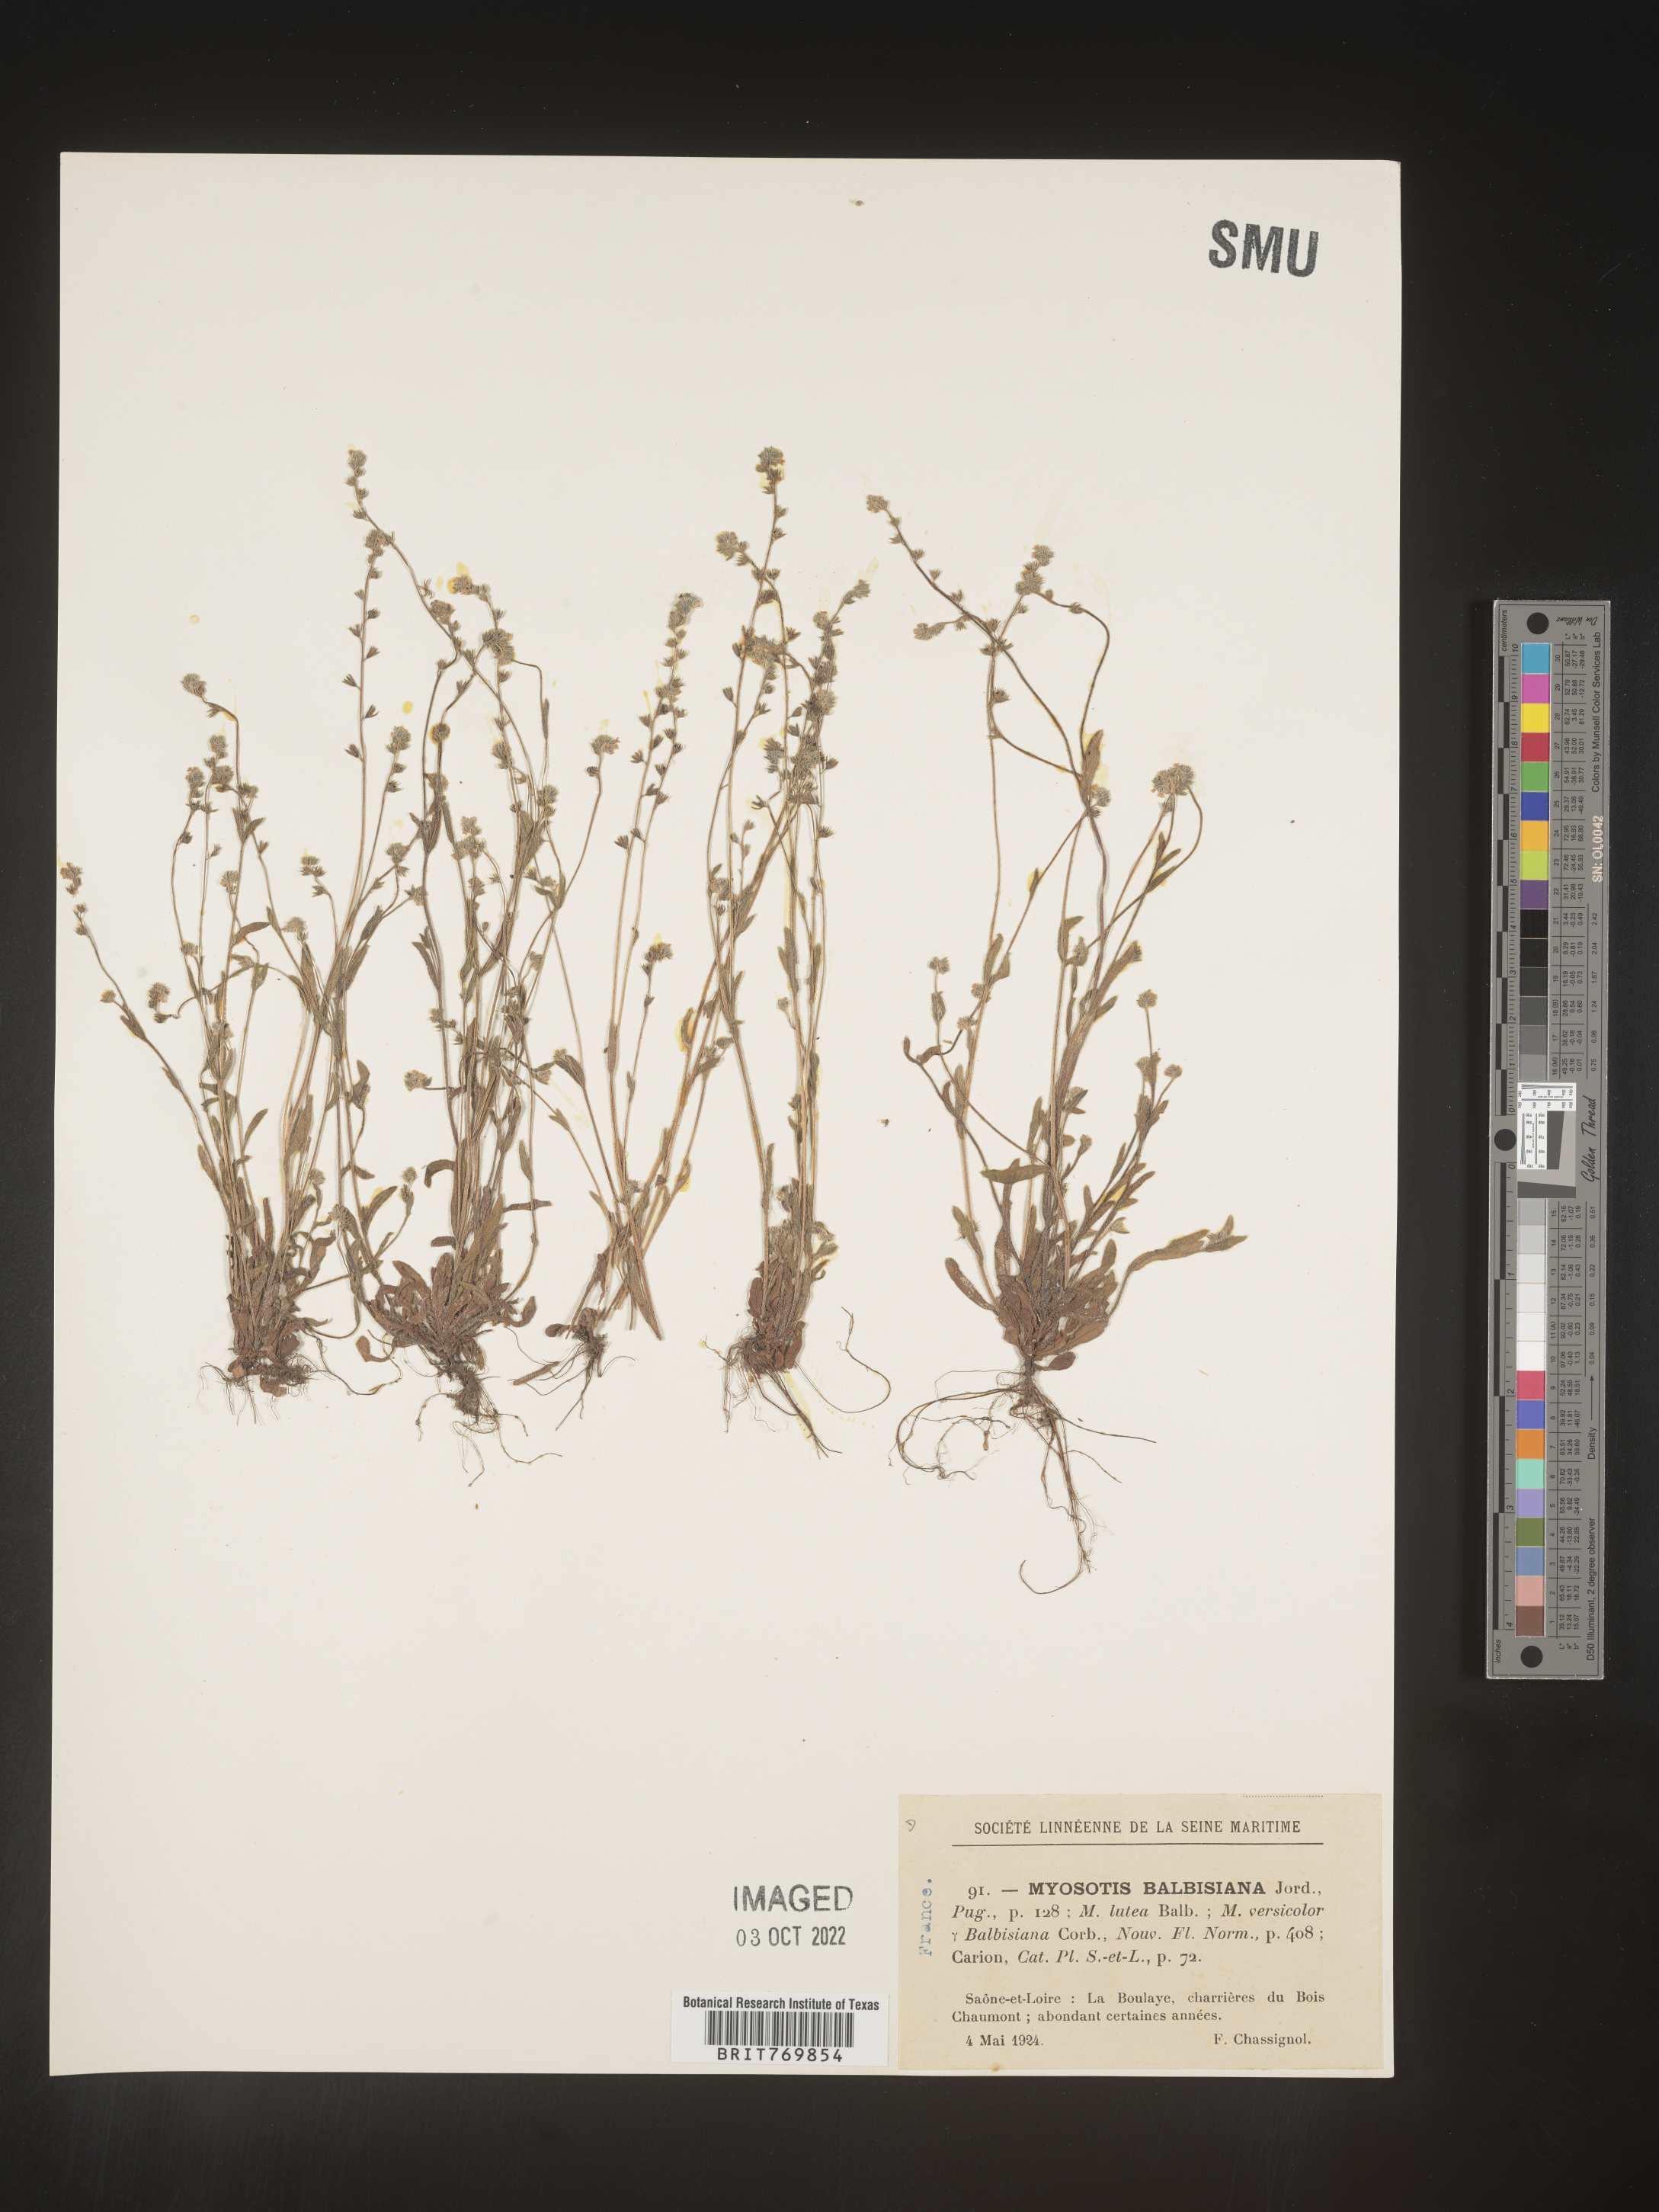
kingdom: Plantae
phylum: Tracheophyta
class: Magnoliopsida
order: Boraginales
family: Boraginaceae
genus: Myosotis
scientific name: Myosotis
